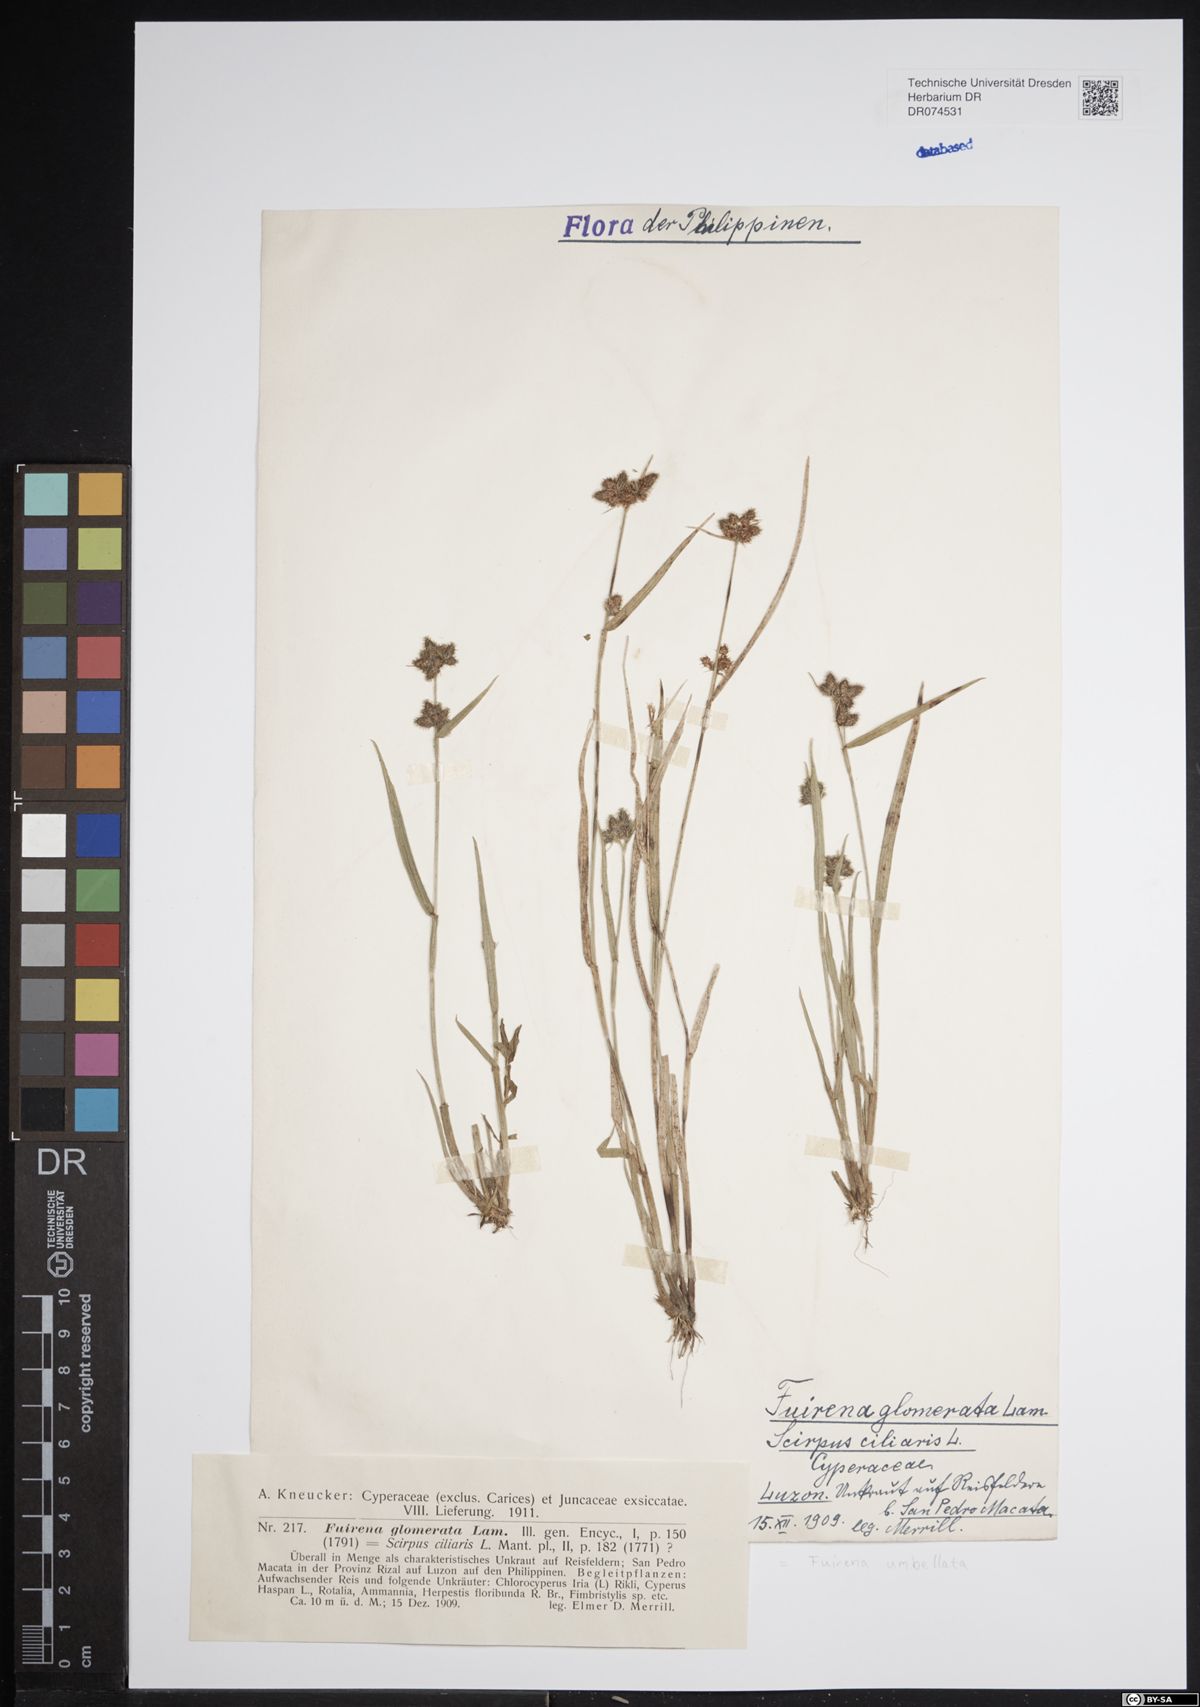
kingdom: Plantae
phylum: Tracheophyta
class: Liliopsida
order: Poales
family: Cyperaceae
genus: Fuirena
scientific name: Fuirena umbellata
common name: Yefen
